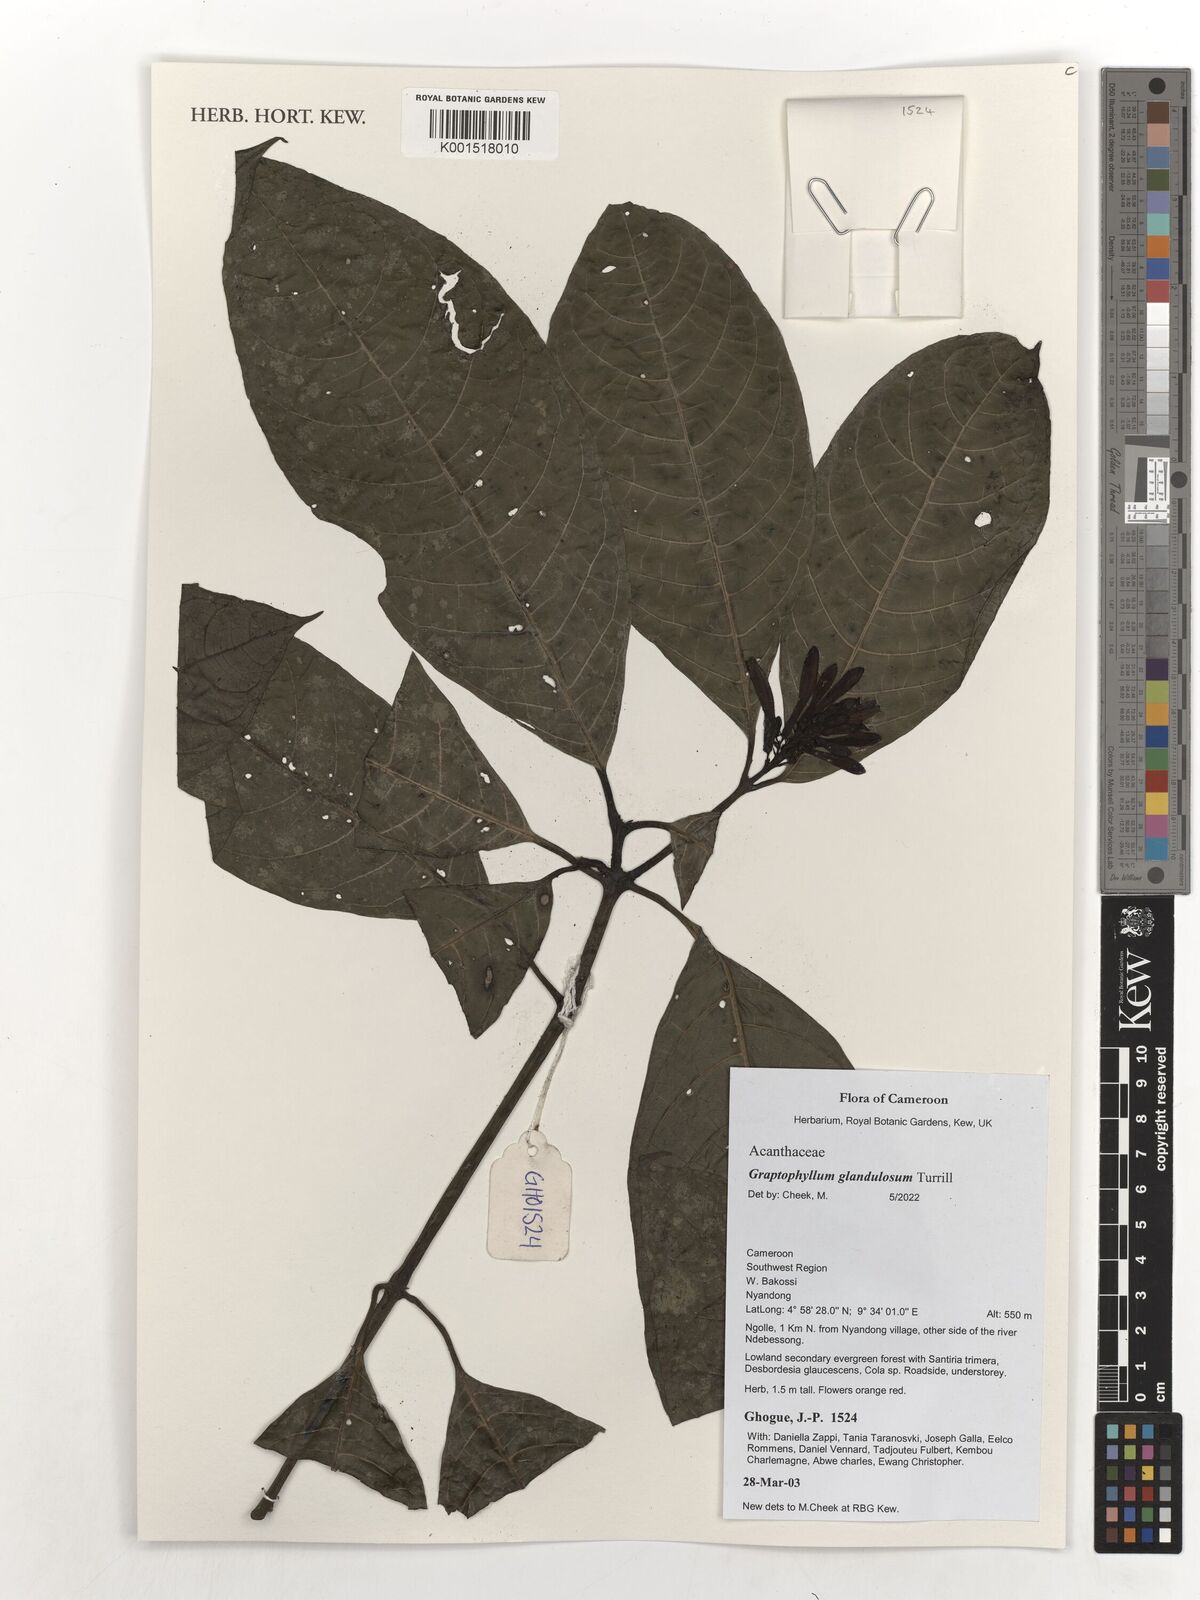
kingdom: Plantae
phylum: Tracheophyta
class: Magnoliopsida
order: Lamiales
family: Acanthaceae
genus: Graptophyllum
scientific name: Graptophyllum glandulosum
